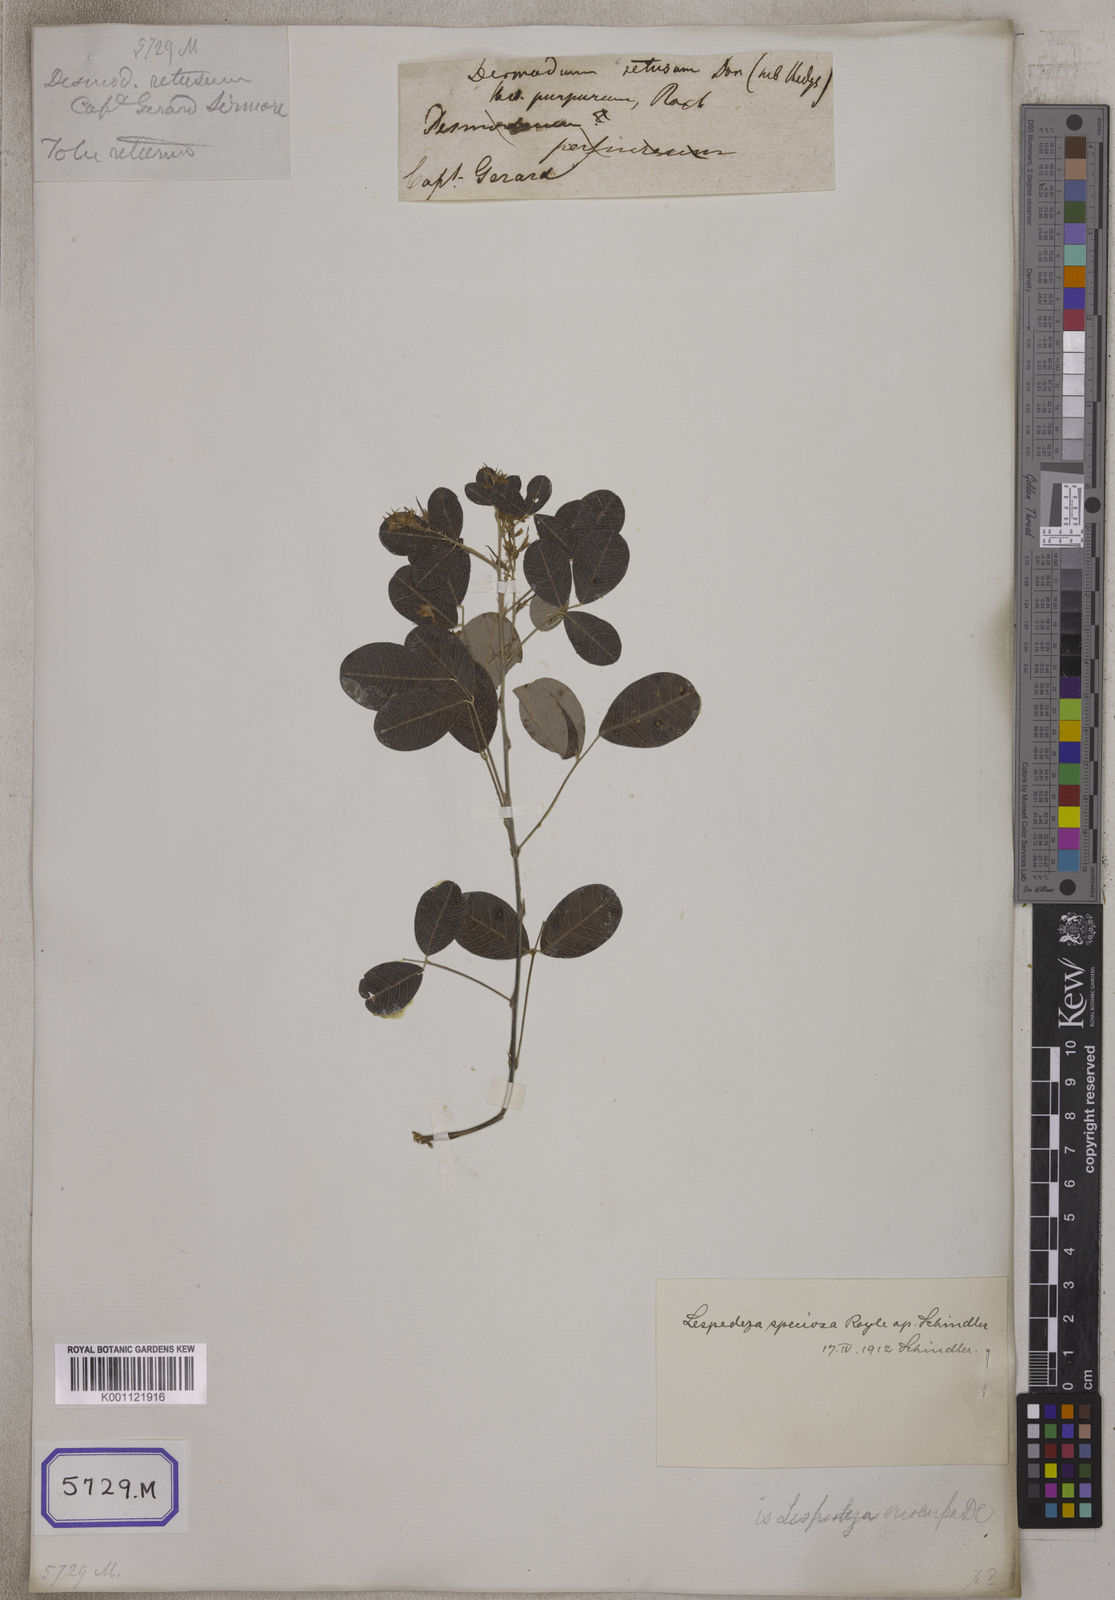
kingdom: Plantae
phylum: Tracheophyta
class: Magnoliopsida
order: Fabales
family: Fabaceae
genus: Desmodium
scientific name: Desmodium
